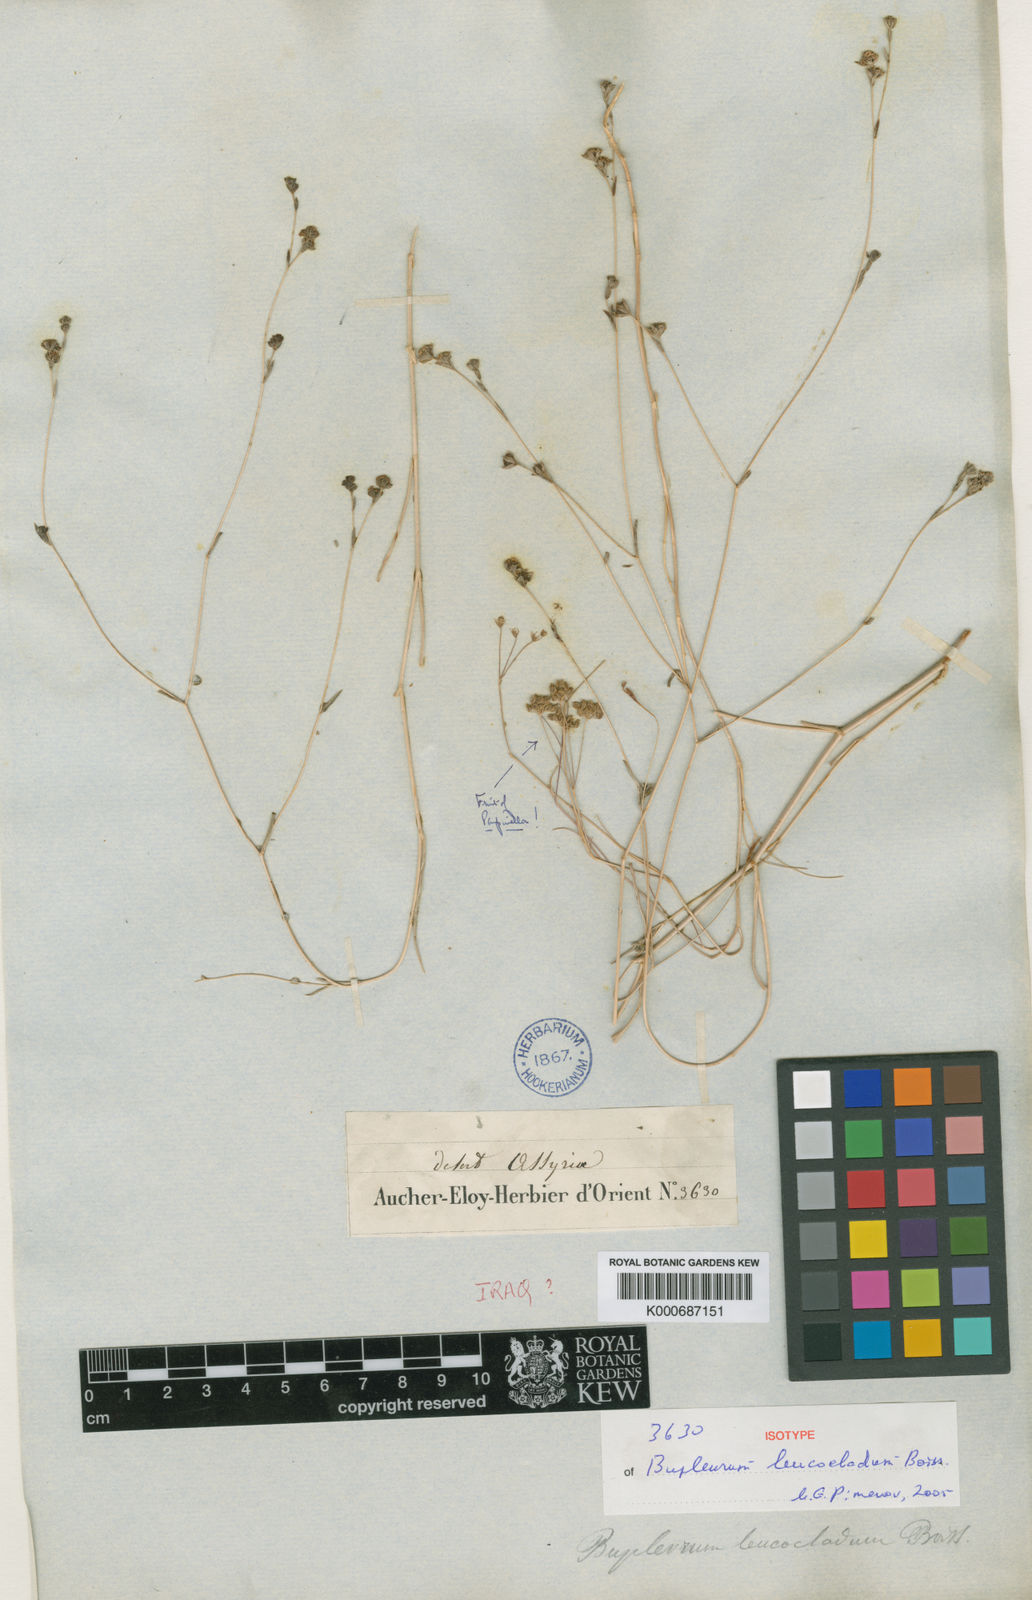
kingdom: Plantae
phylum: Tracheophyta
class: Magnoliopsida
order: Apiales
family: Apiaceae
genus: Bupleurum
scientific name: Bupleurum leucocladum
